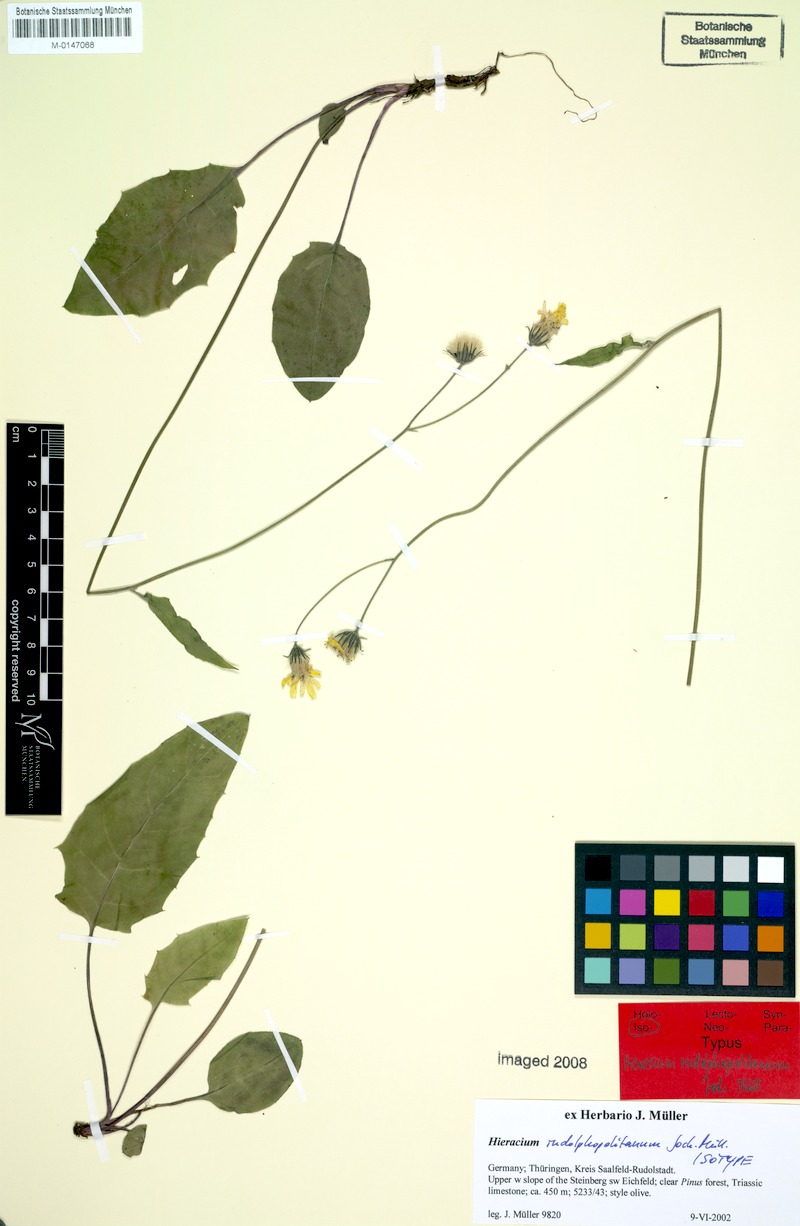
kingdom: Plantae
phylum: Tracheophyta
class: Magnoliopsida
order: Asterales
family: Asteraceae
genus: Hieracium
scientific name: Hieracium hypochoeroides
